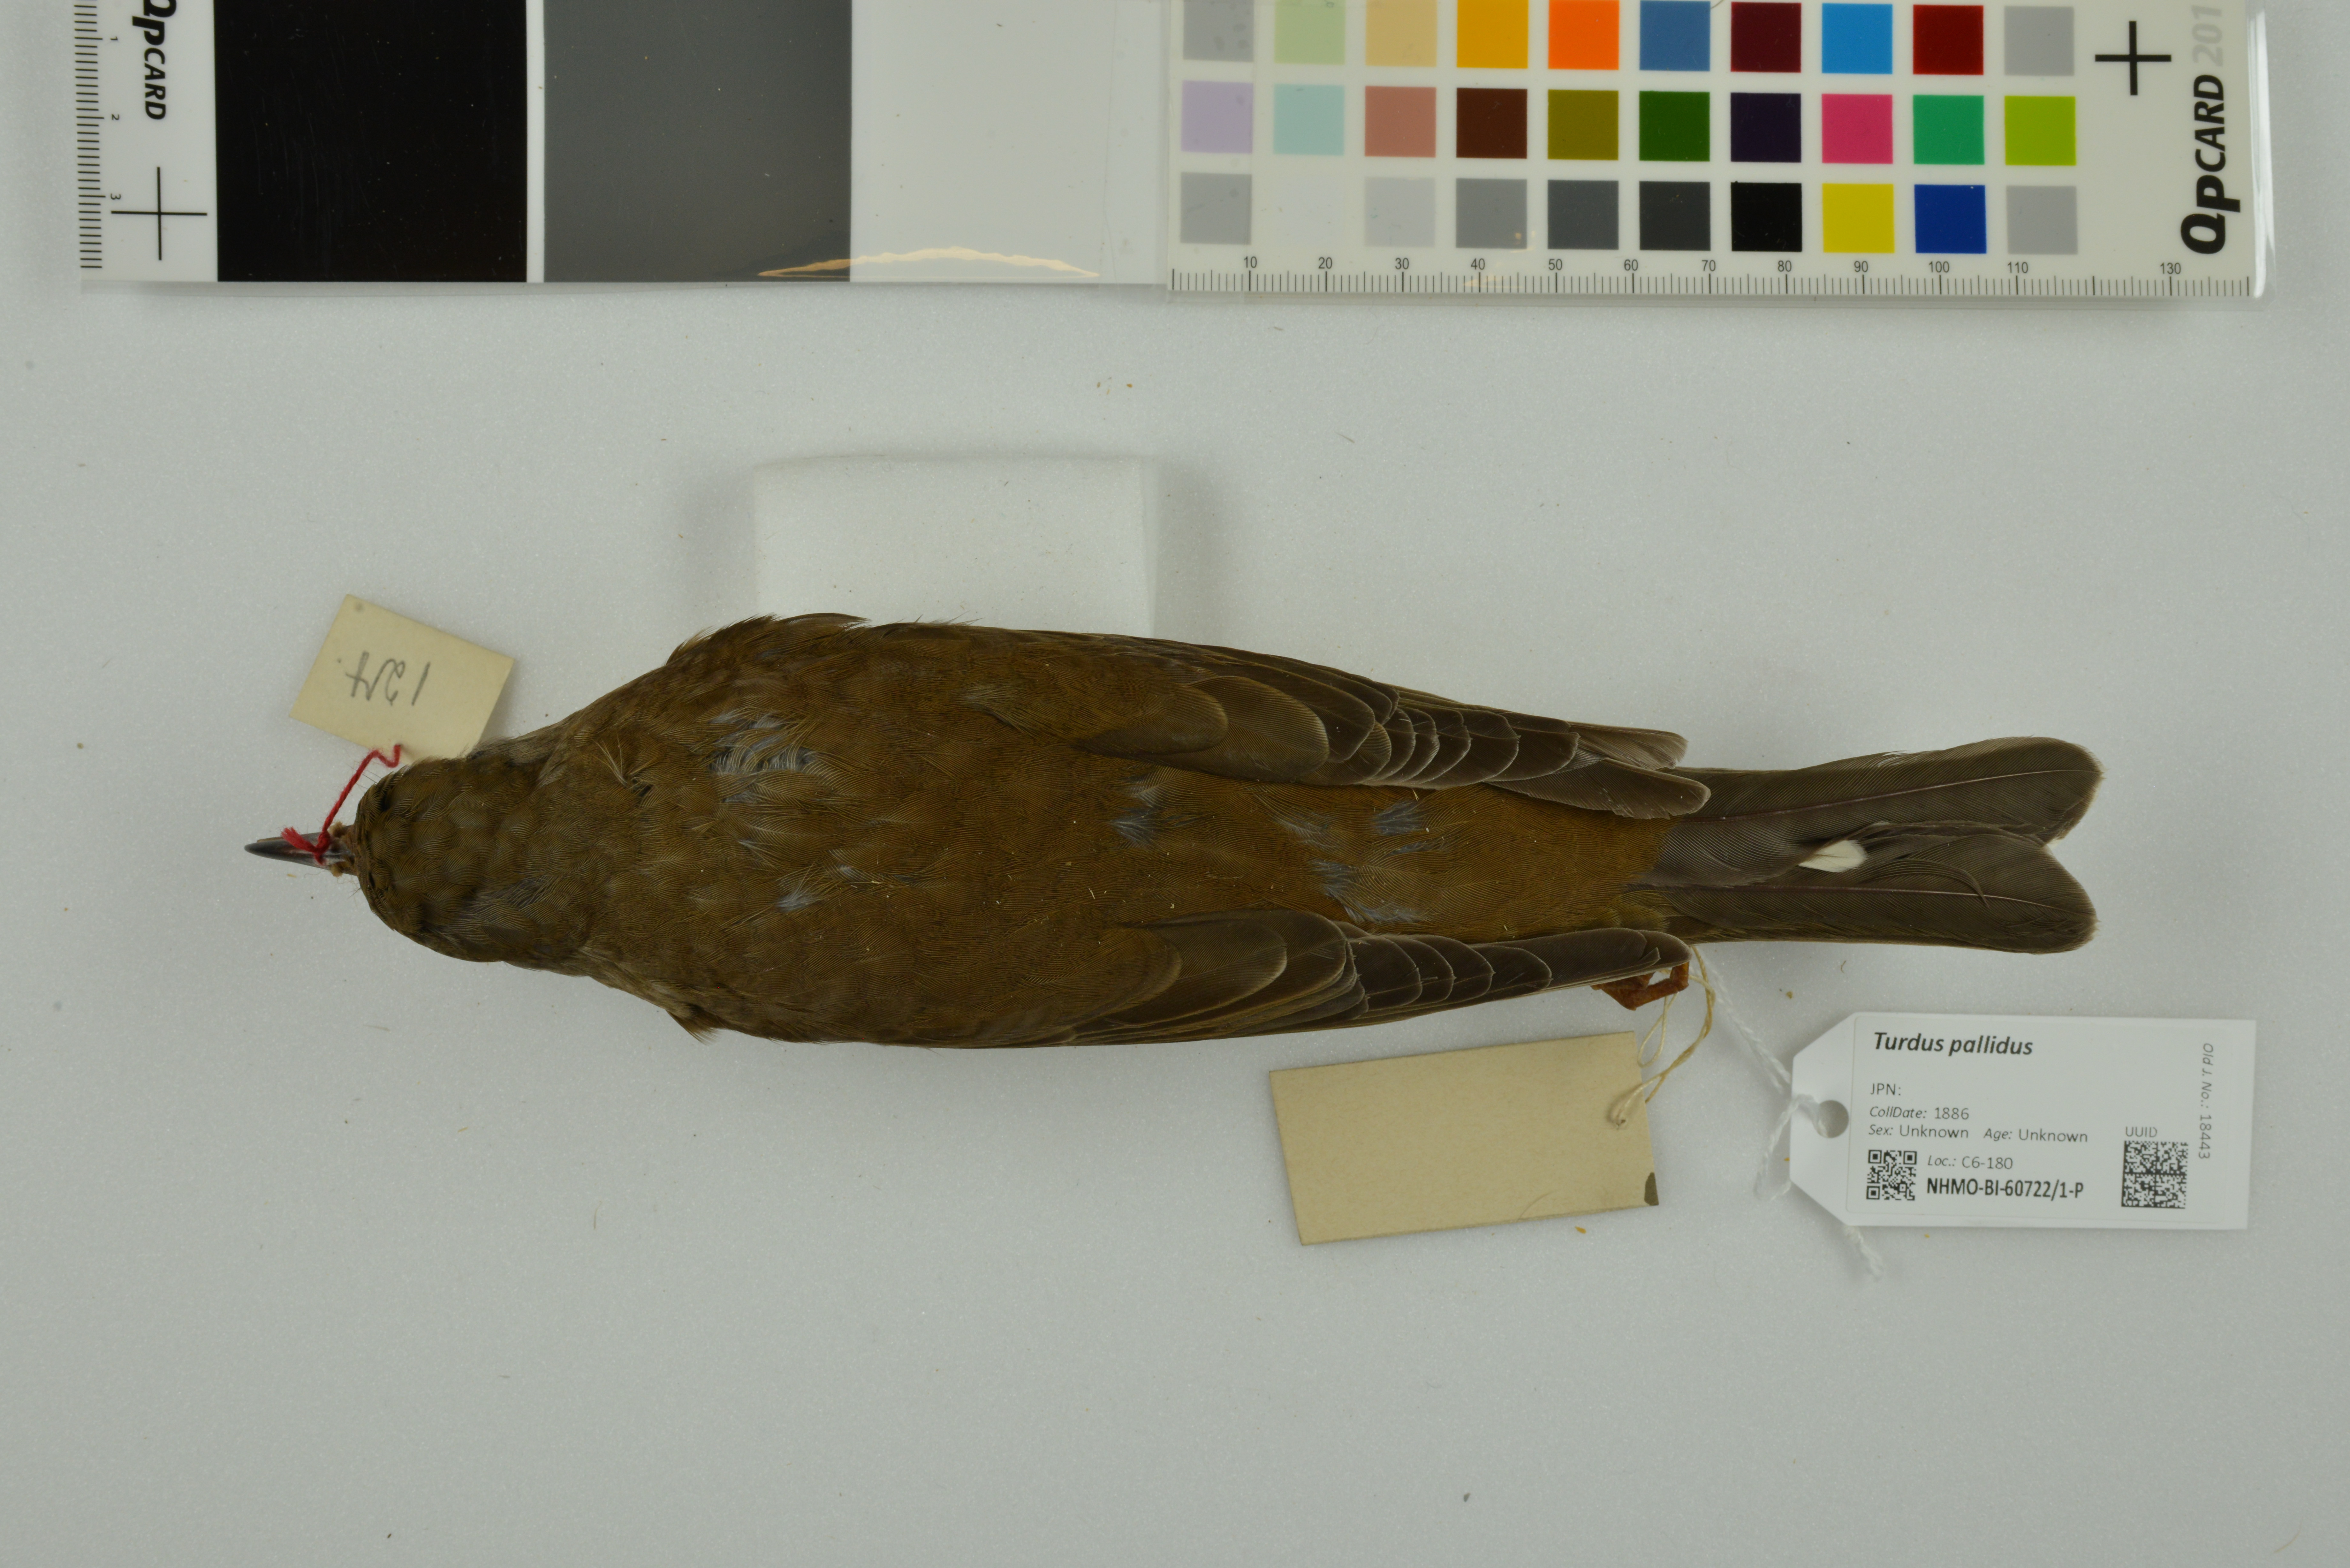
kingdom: Animalia
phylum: Chordata
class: Aves
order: Passeriformes
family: Turdidae
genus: Turdus
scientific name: Turdus pallidus
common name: Pale thrush
